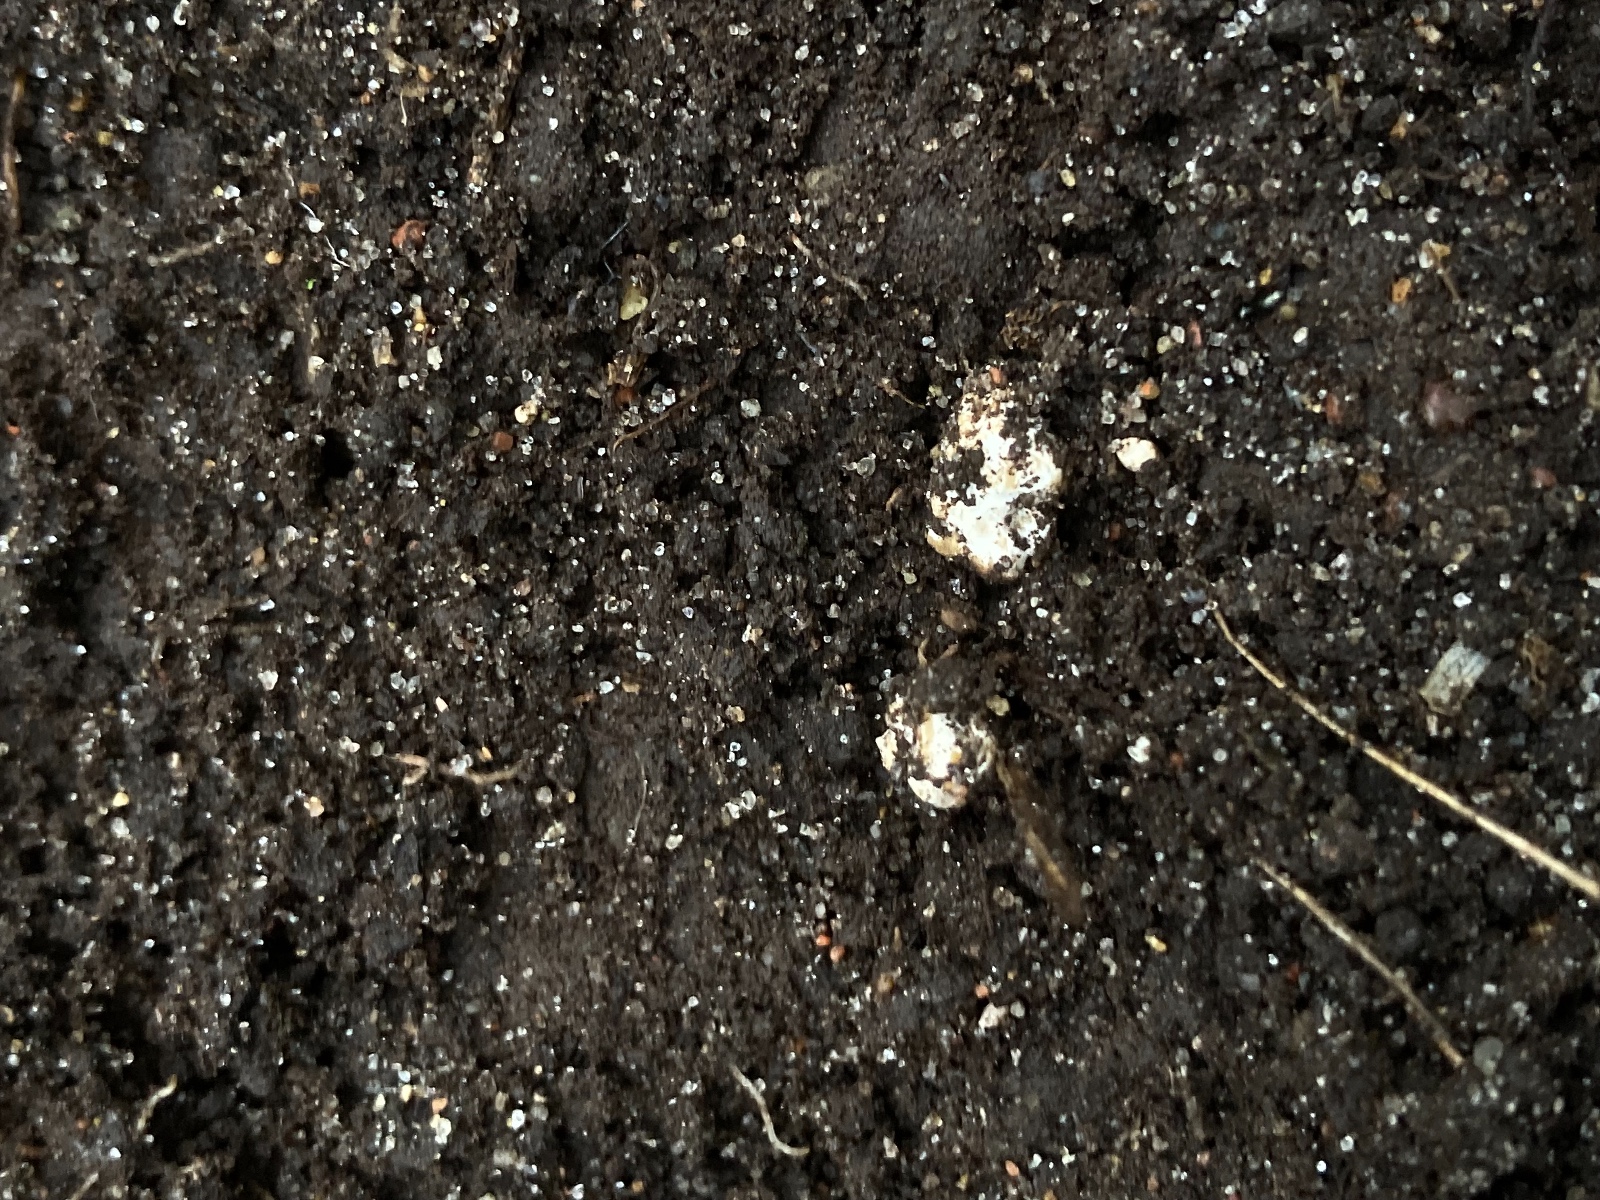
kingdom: Fungi
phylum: Glomeromycota
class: Glomeromycetes
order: Glomerales
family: Glomeraceae
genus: Glomus
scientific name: Glomus microcarpum
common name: Small-spored pea truffle
